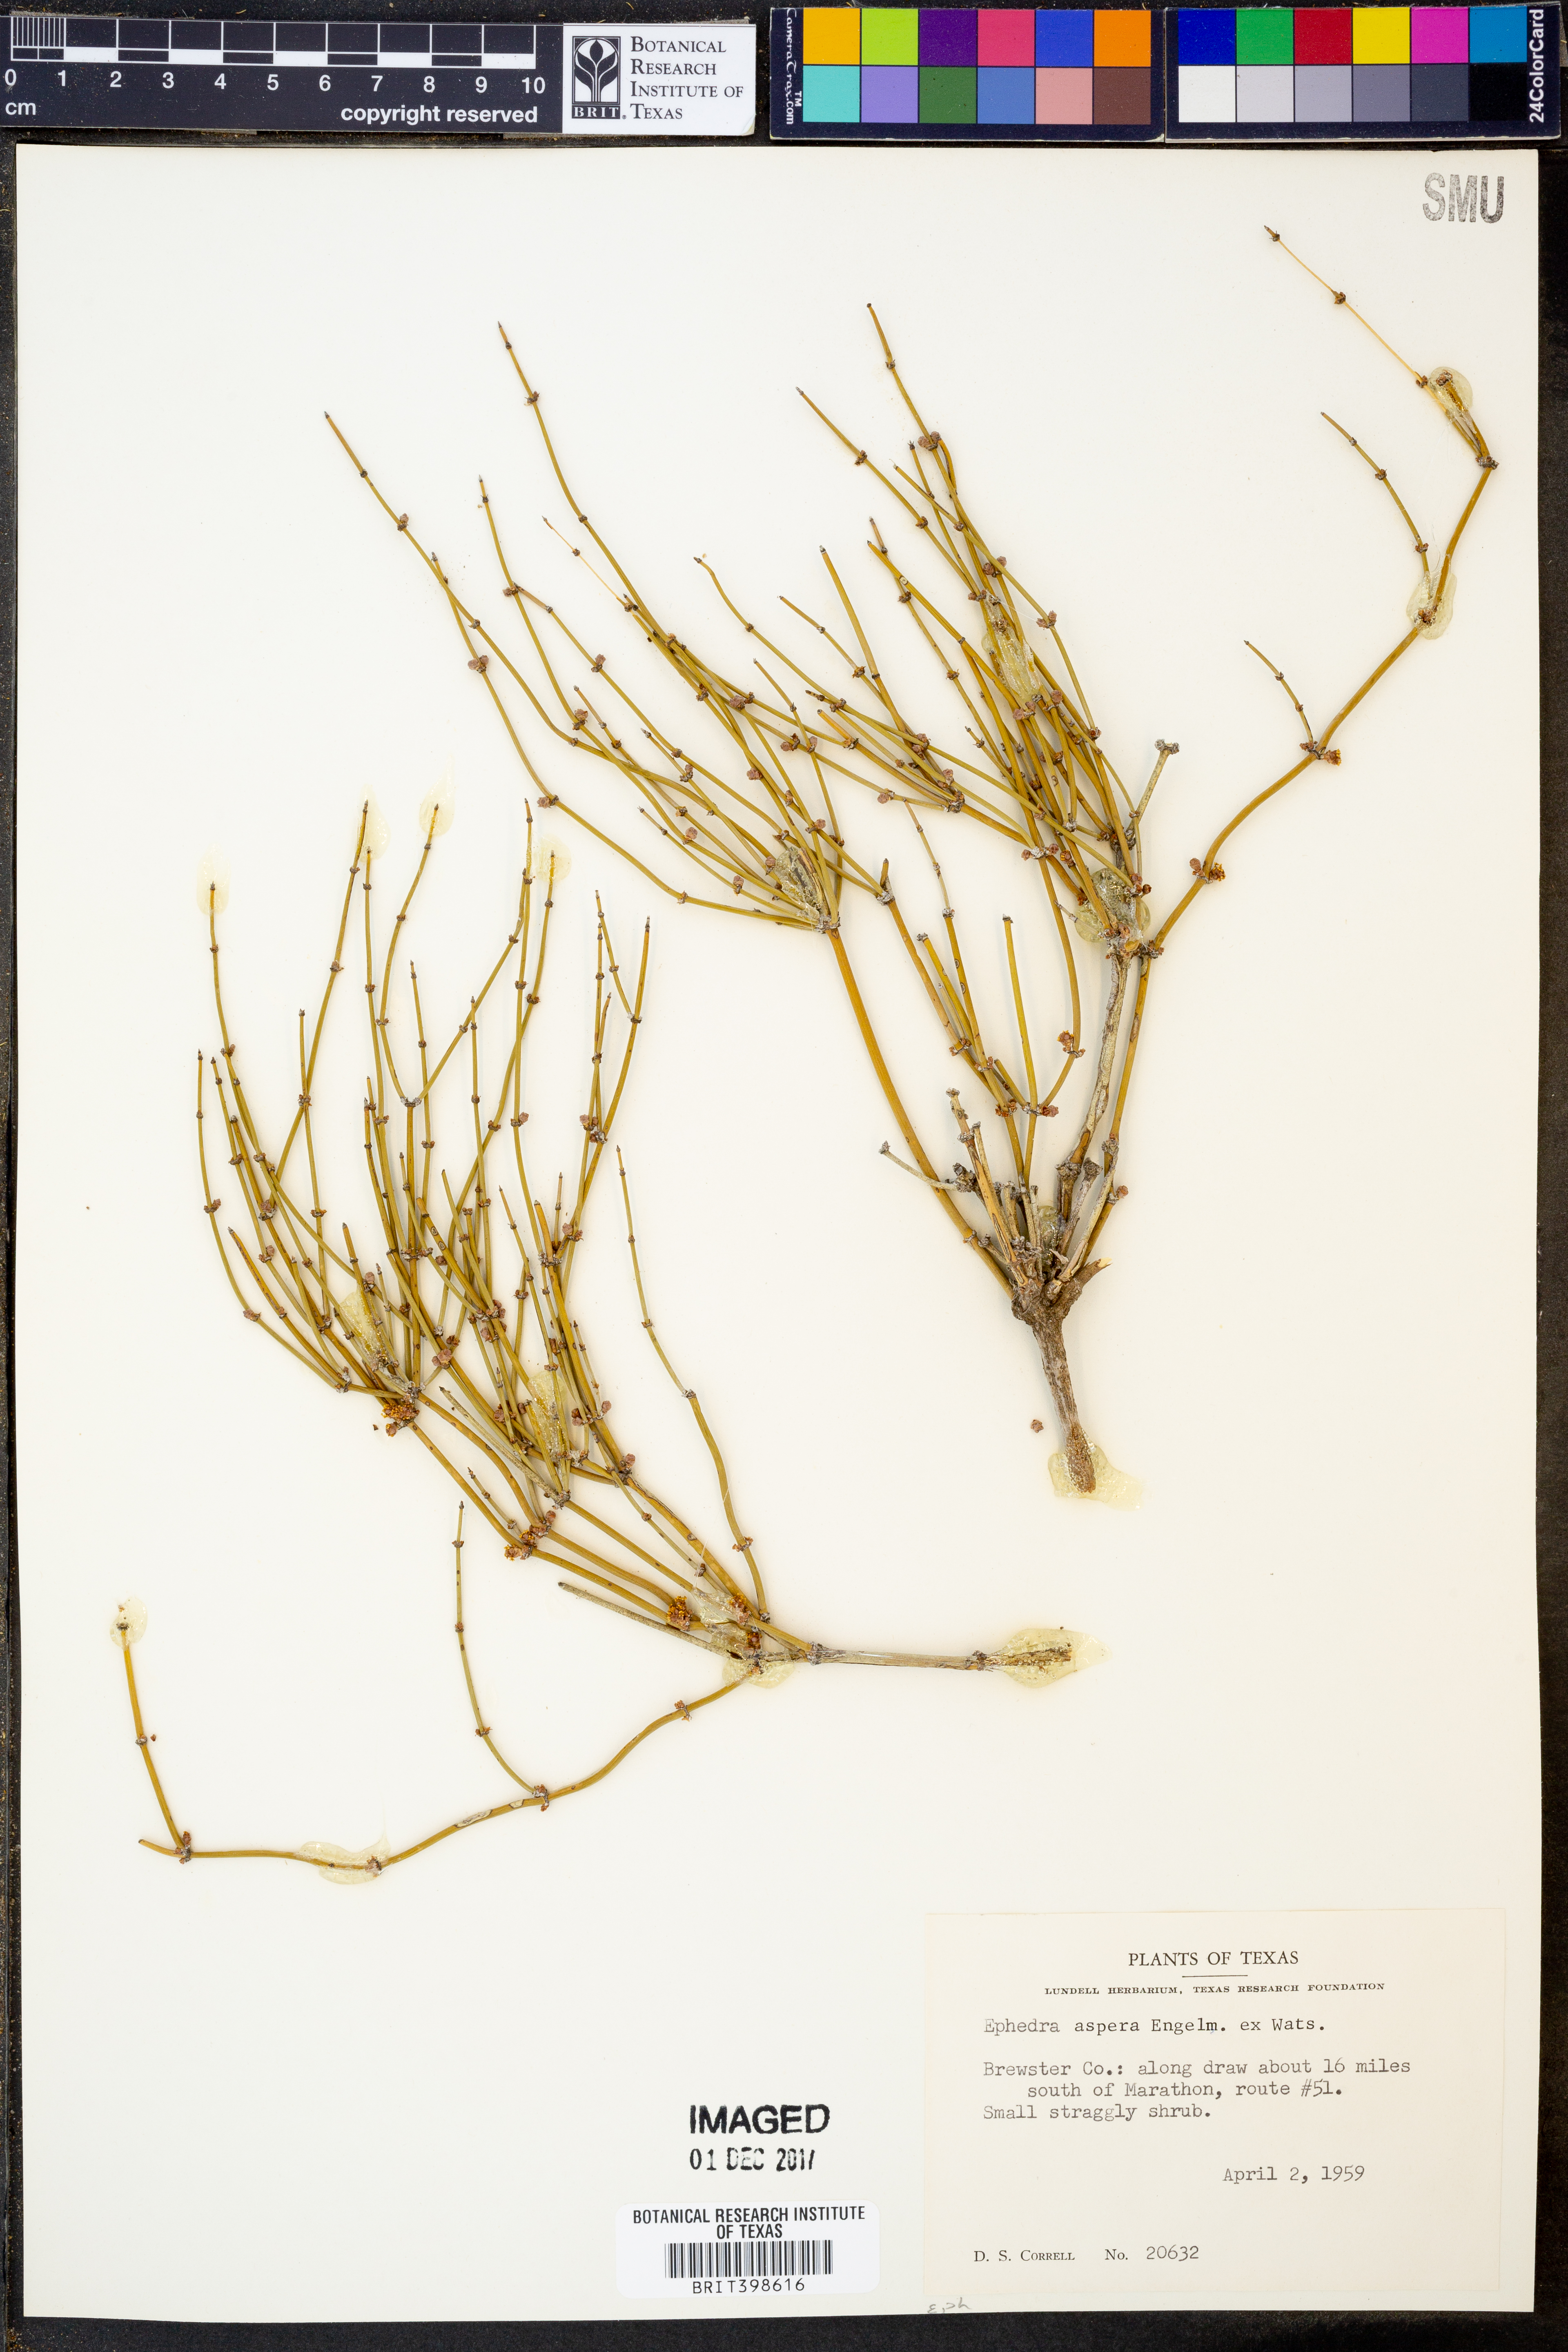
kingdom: Plantae
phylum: Tracheophyta
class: Gnetopsida
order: Ephedrales
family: Ephedraceae
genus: Ephedra
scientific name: Ephedra aspera
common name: Boundary ephedra
